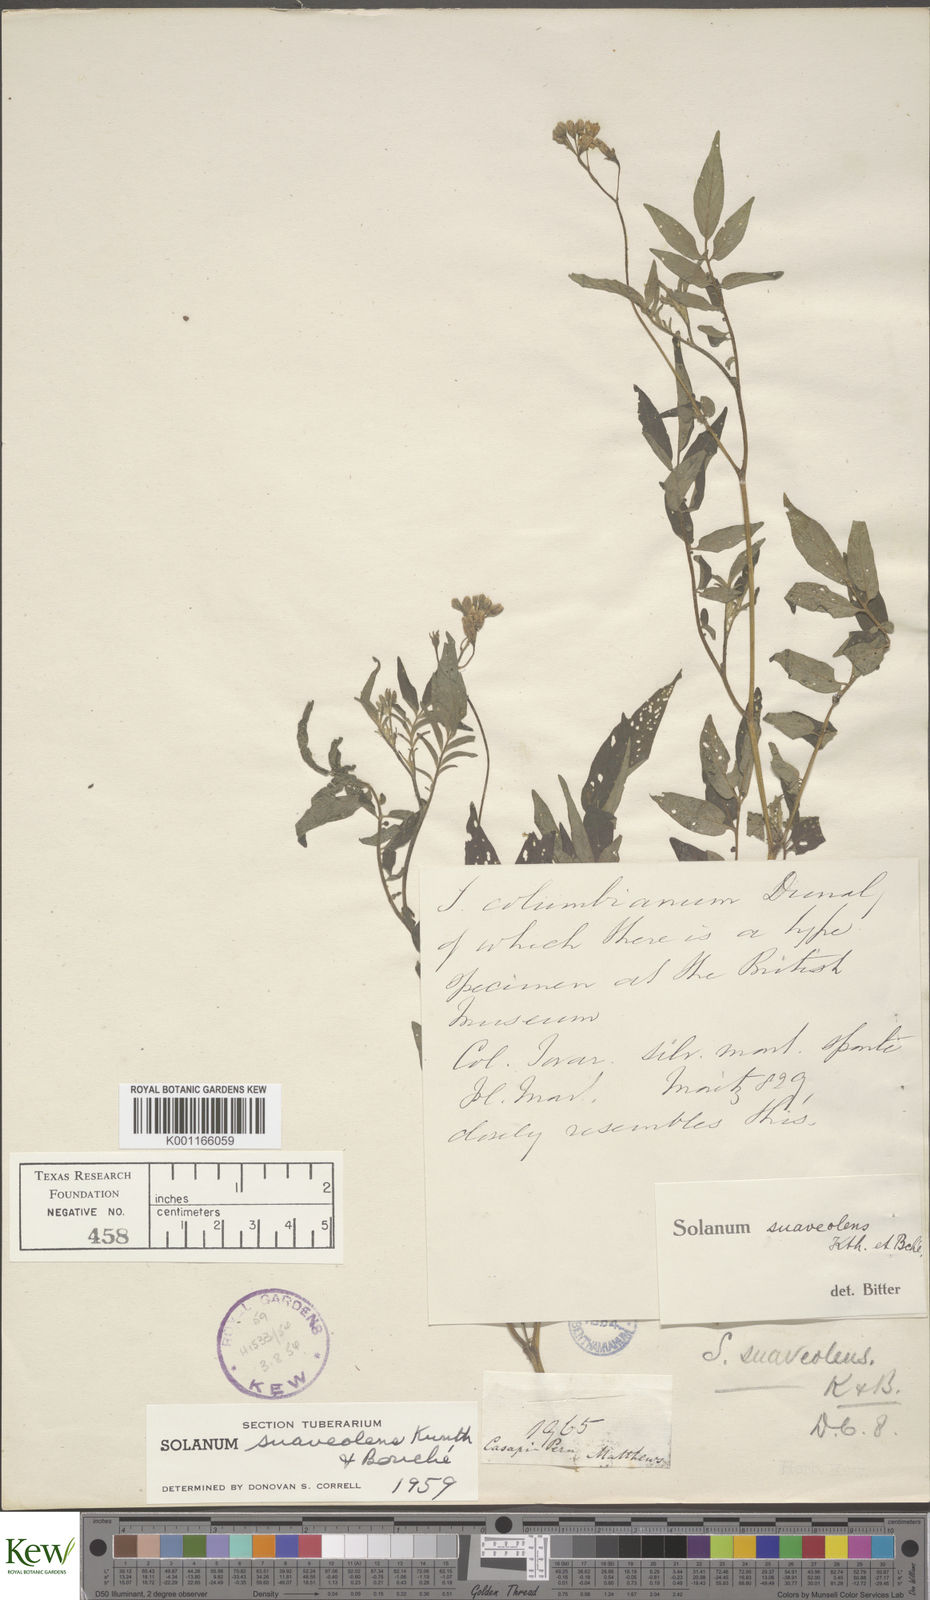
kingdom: Plantae
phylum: Tracheophyta
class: Magnoliopsida
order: Solanales
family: Solanaceae
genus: Solanum
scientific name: Solanum suaveolens
